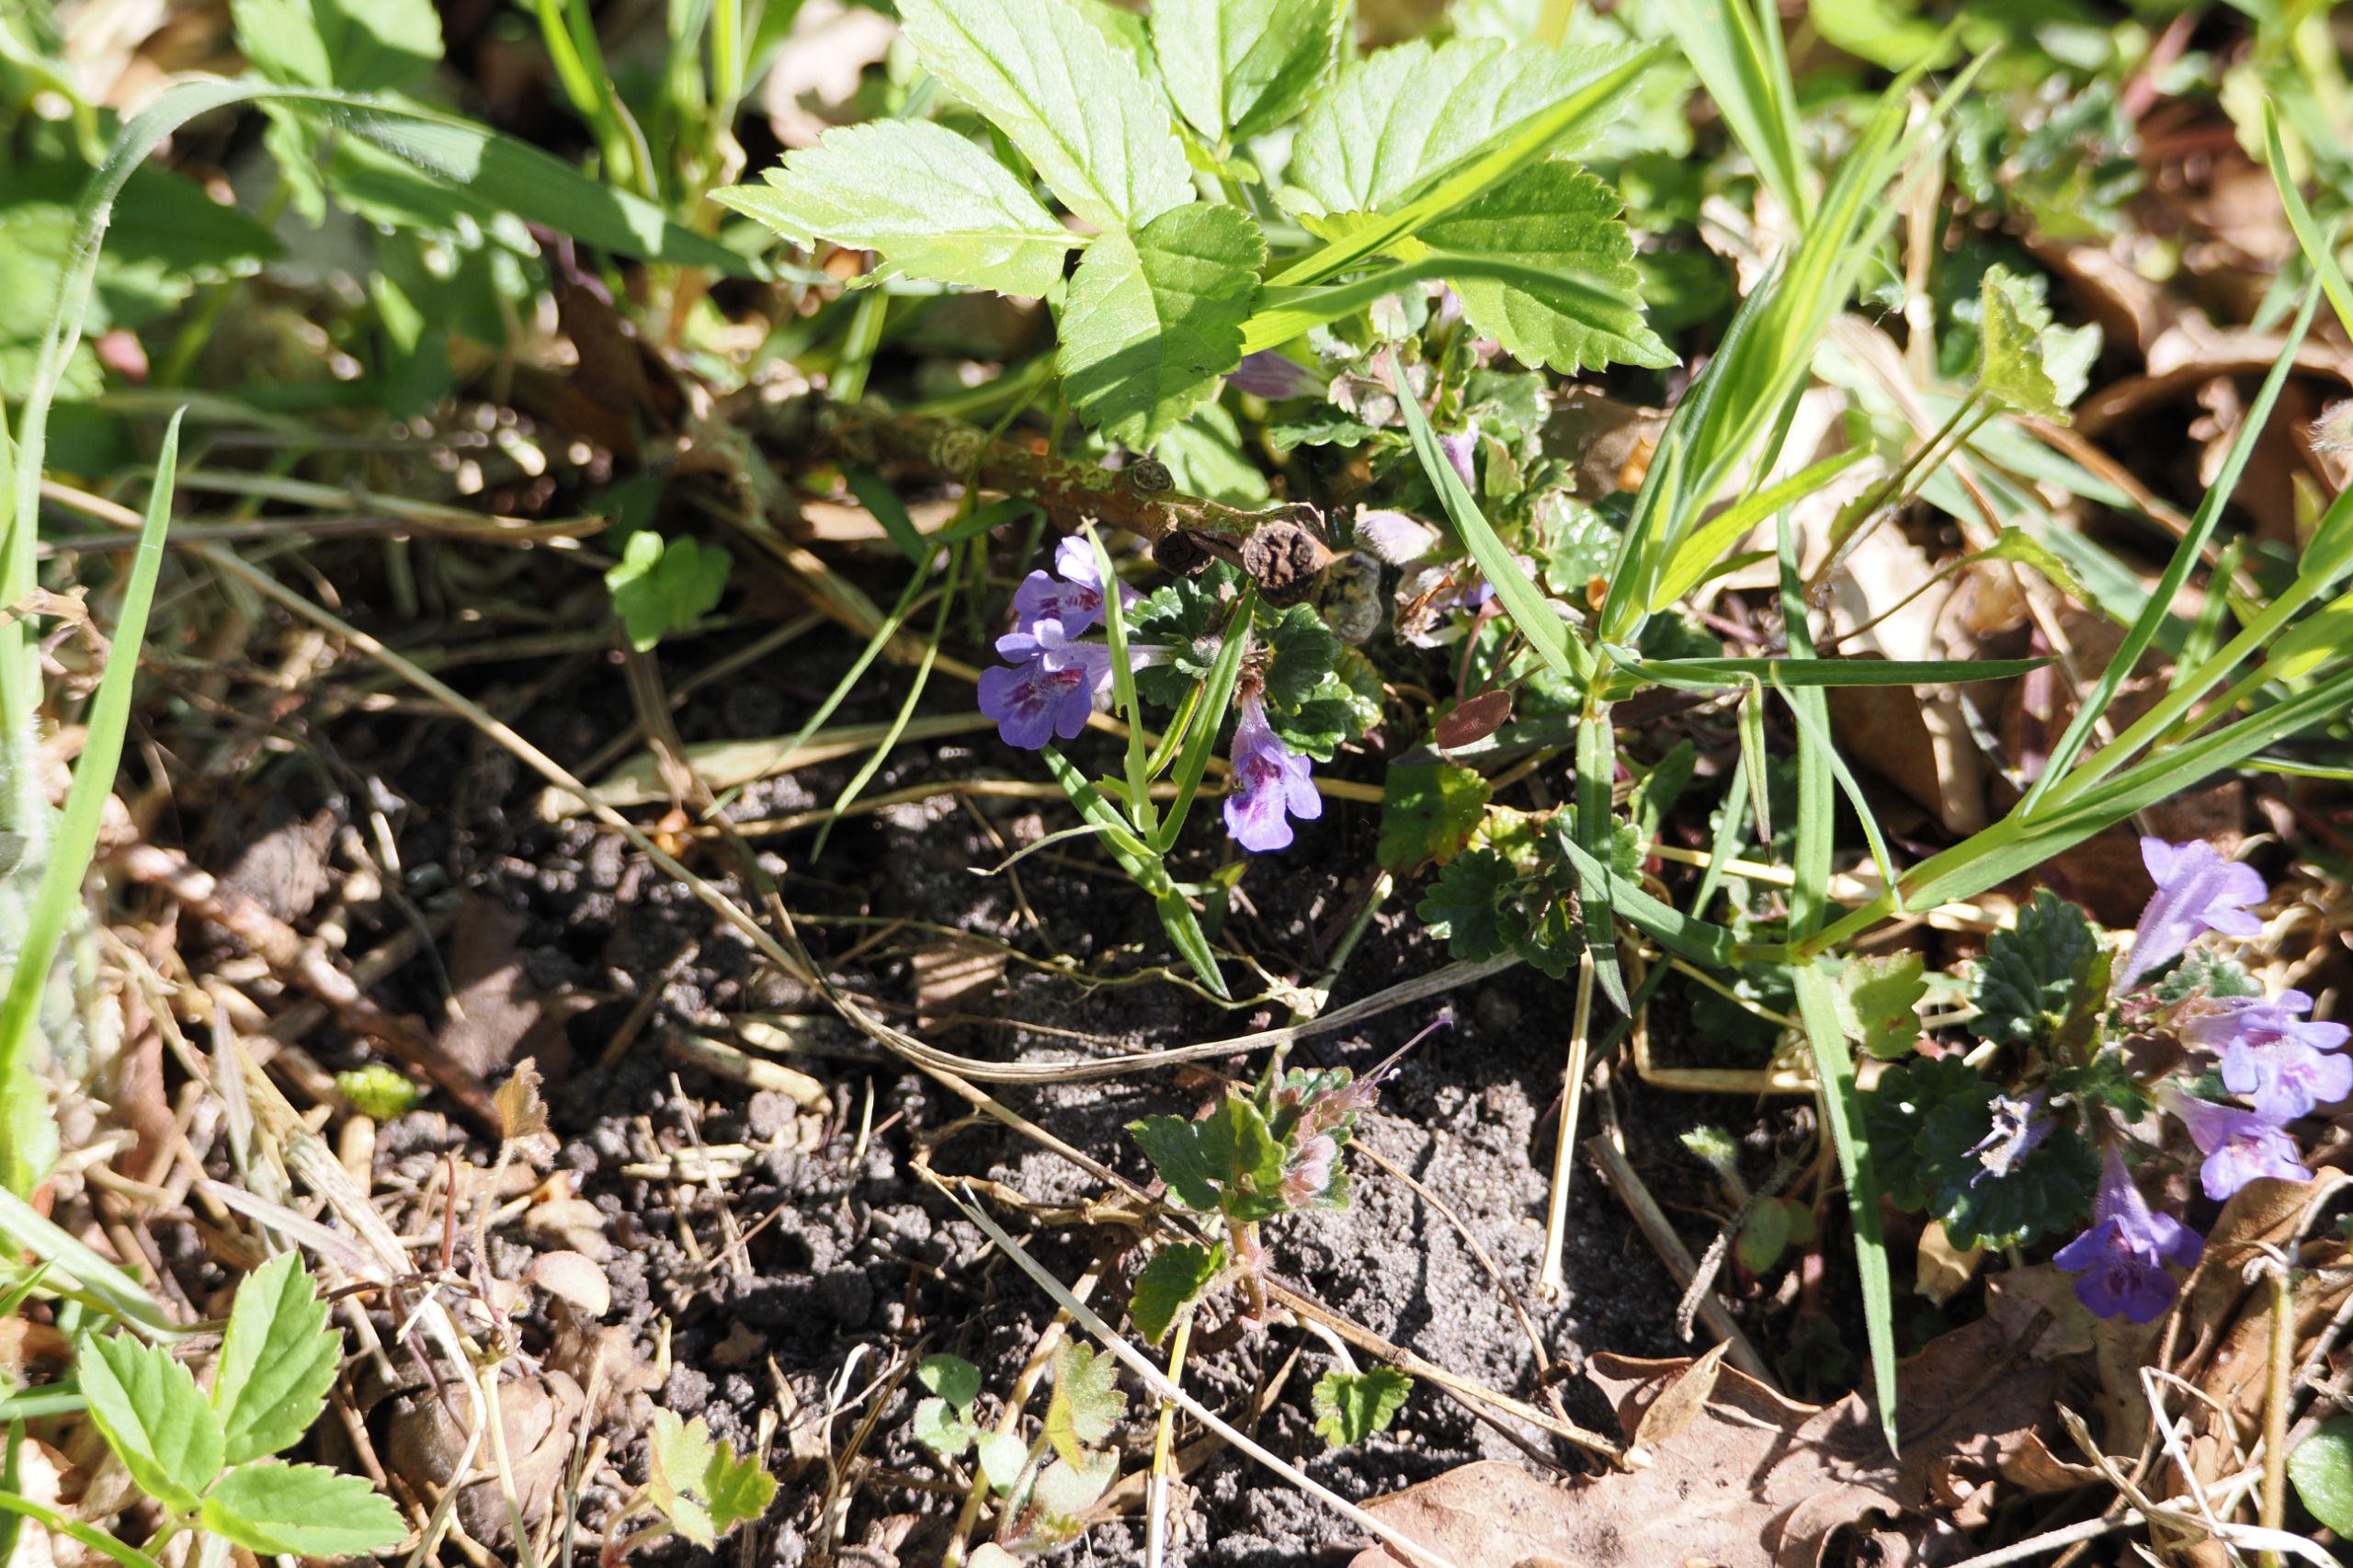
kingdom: Plantae
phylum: Tracheophyta
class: Magnoliopsida
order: Lamiales
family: Lamiaceae
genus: Glechoma
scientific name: Glechoma hederacea
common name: Korsknap
